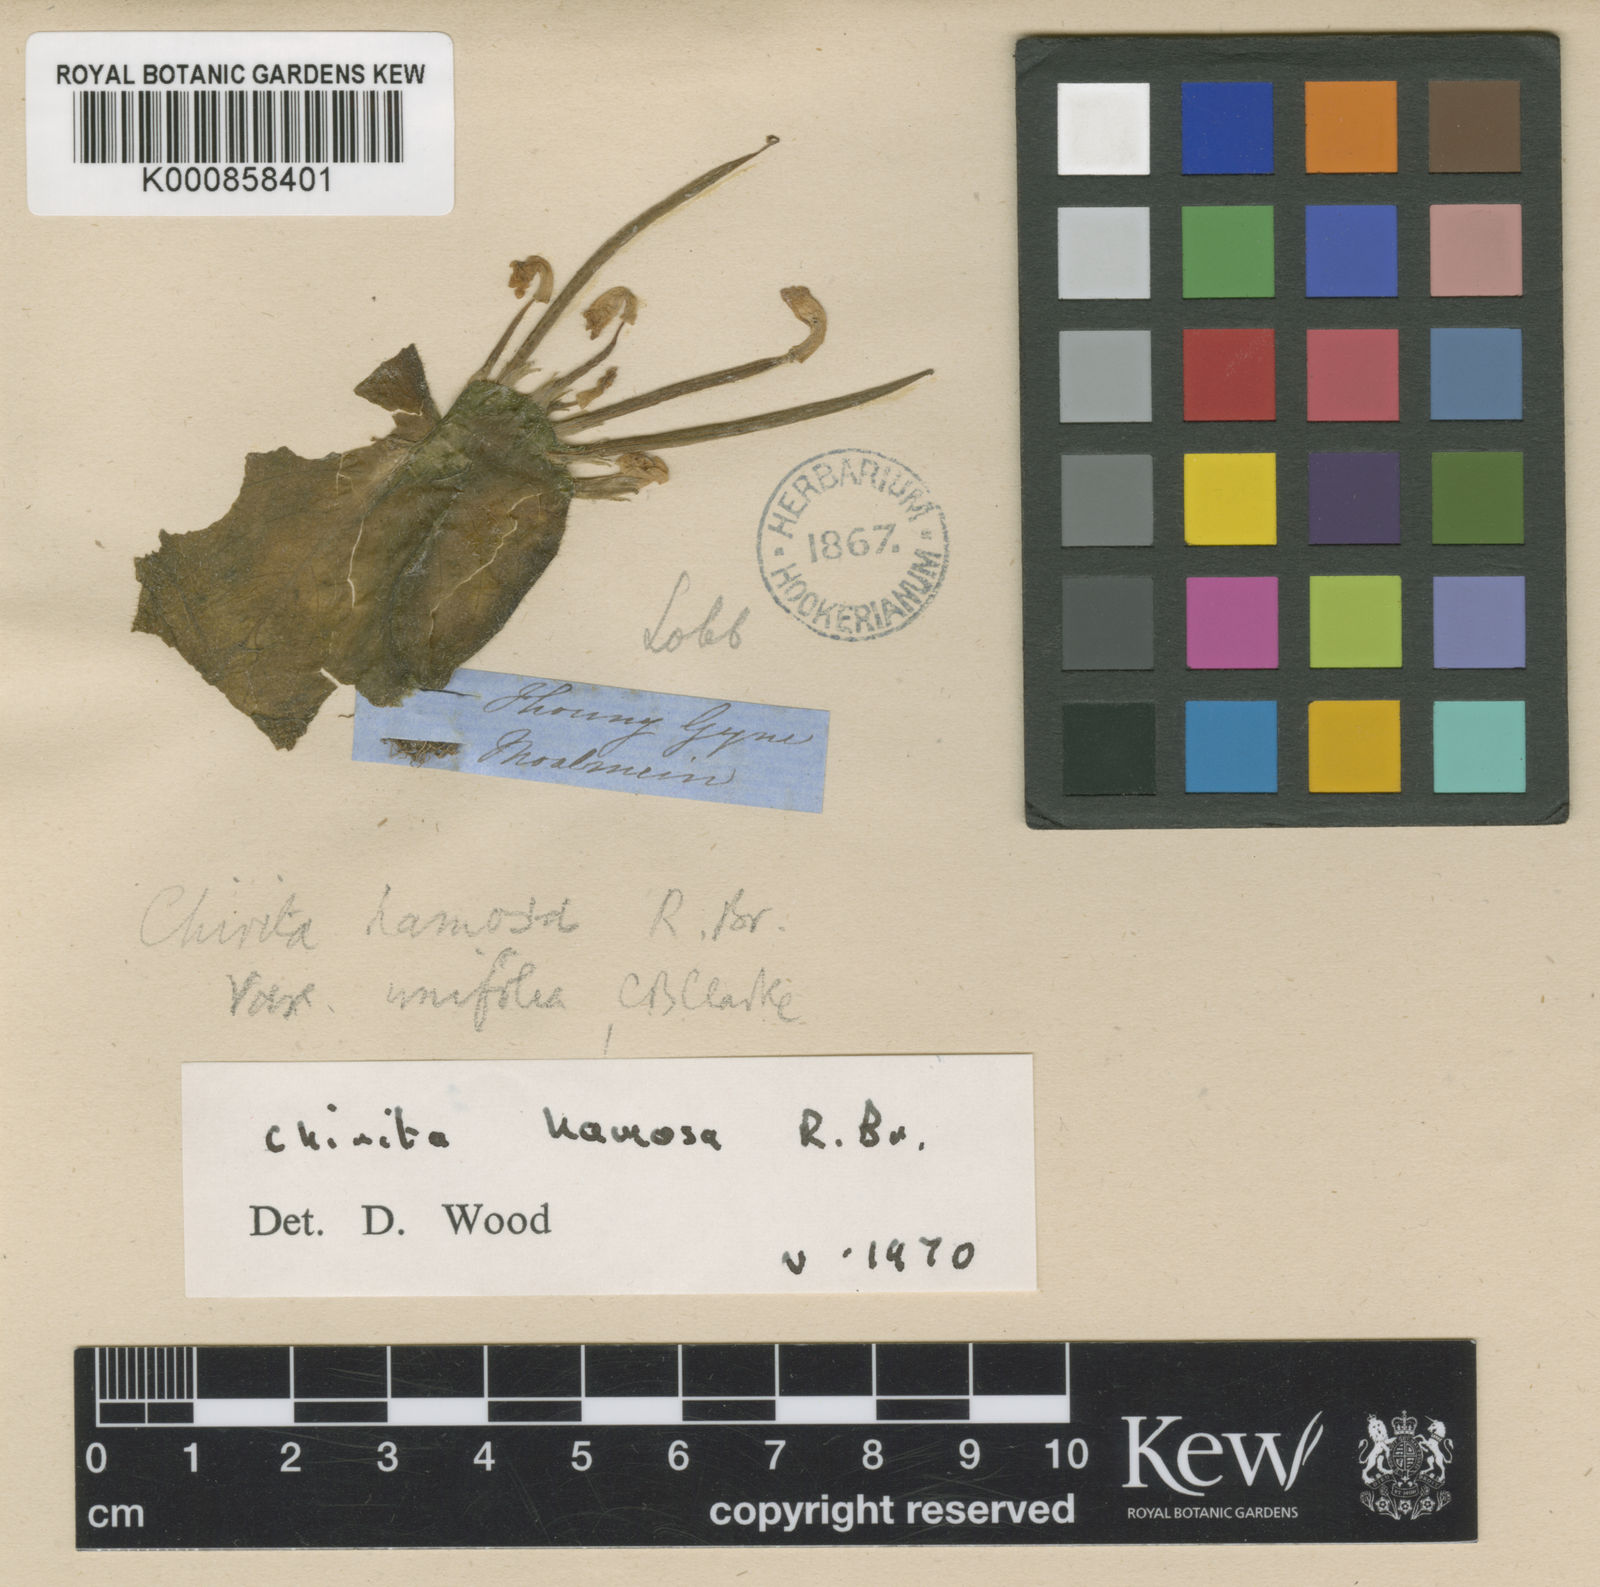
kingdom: Plantae
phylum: Tracheophyta
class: Magnoliopsida
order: Lamiales
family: Gesneriaceae
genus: Microchirita
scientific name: Microchirita hamosa
